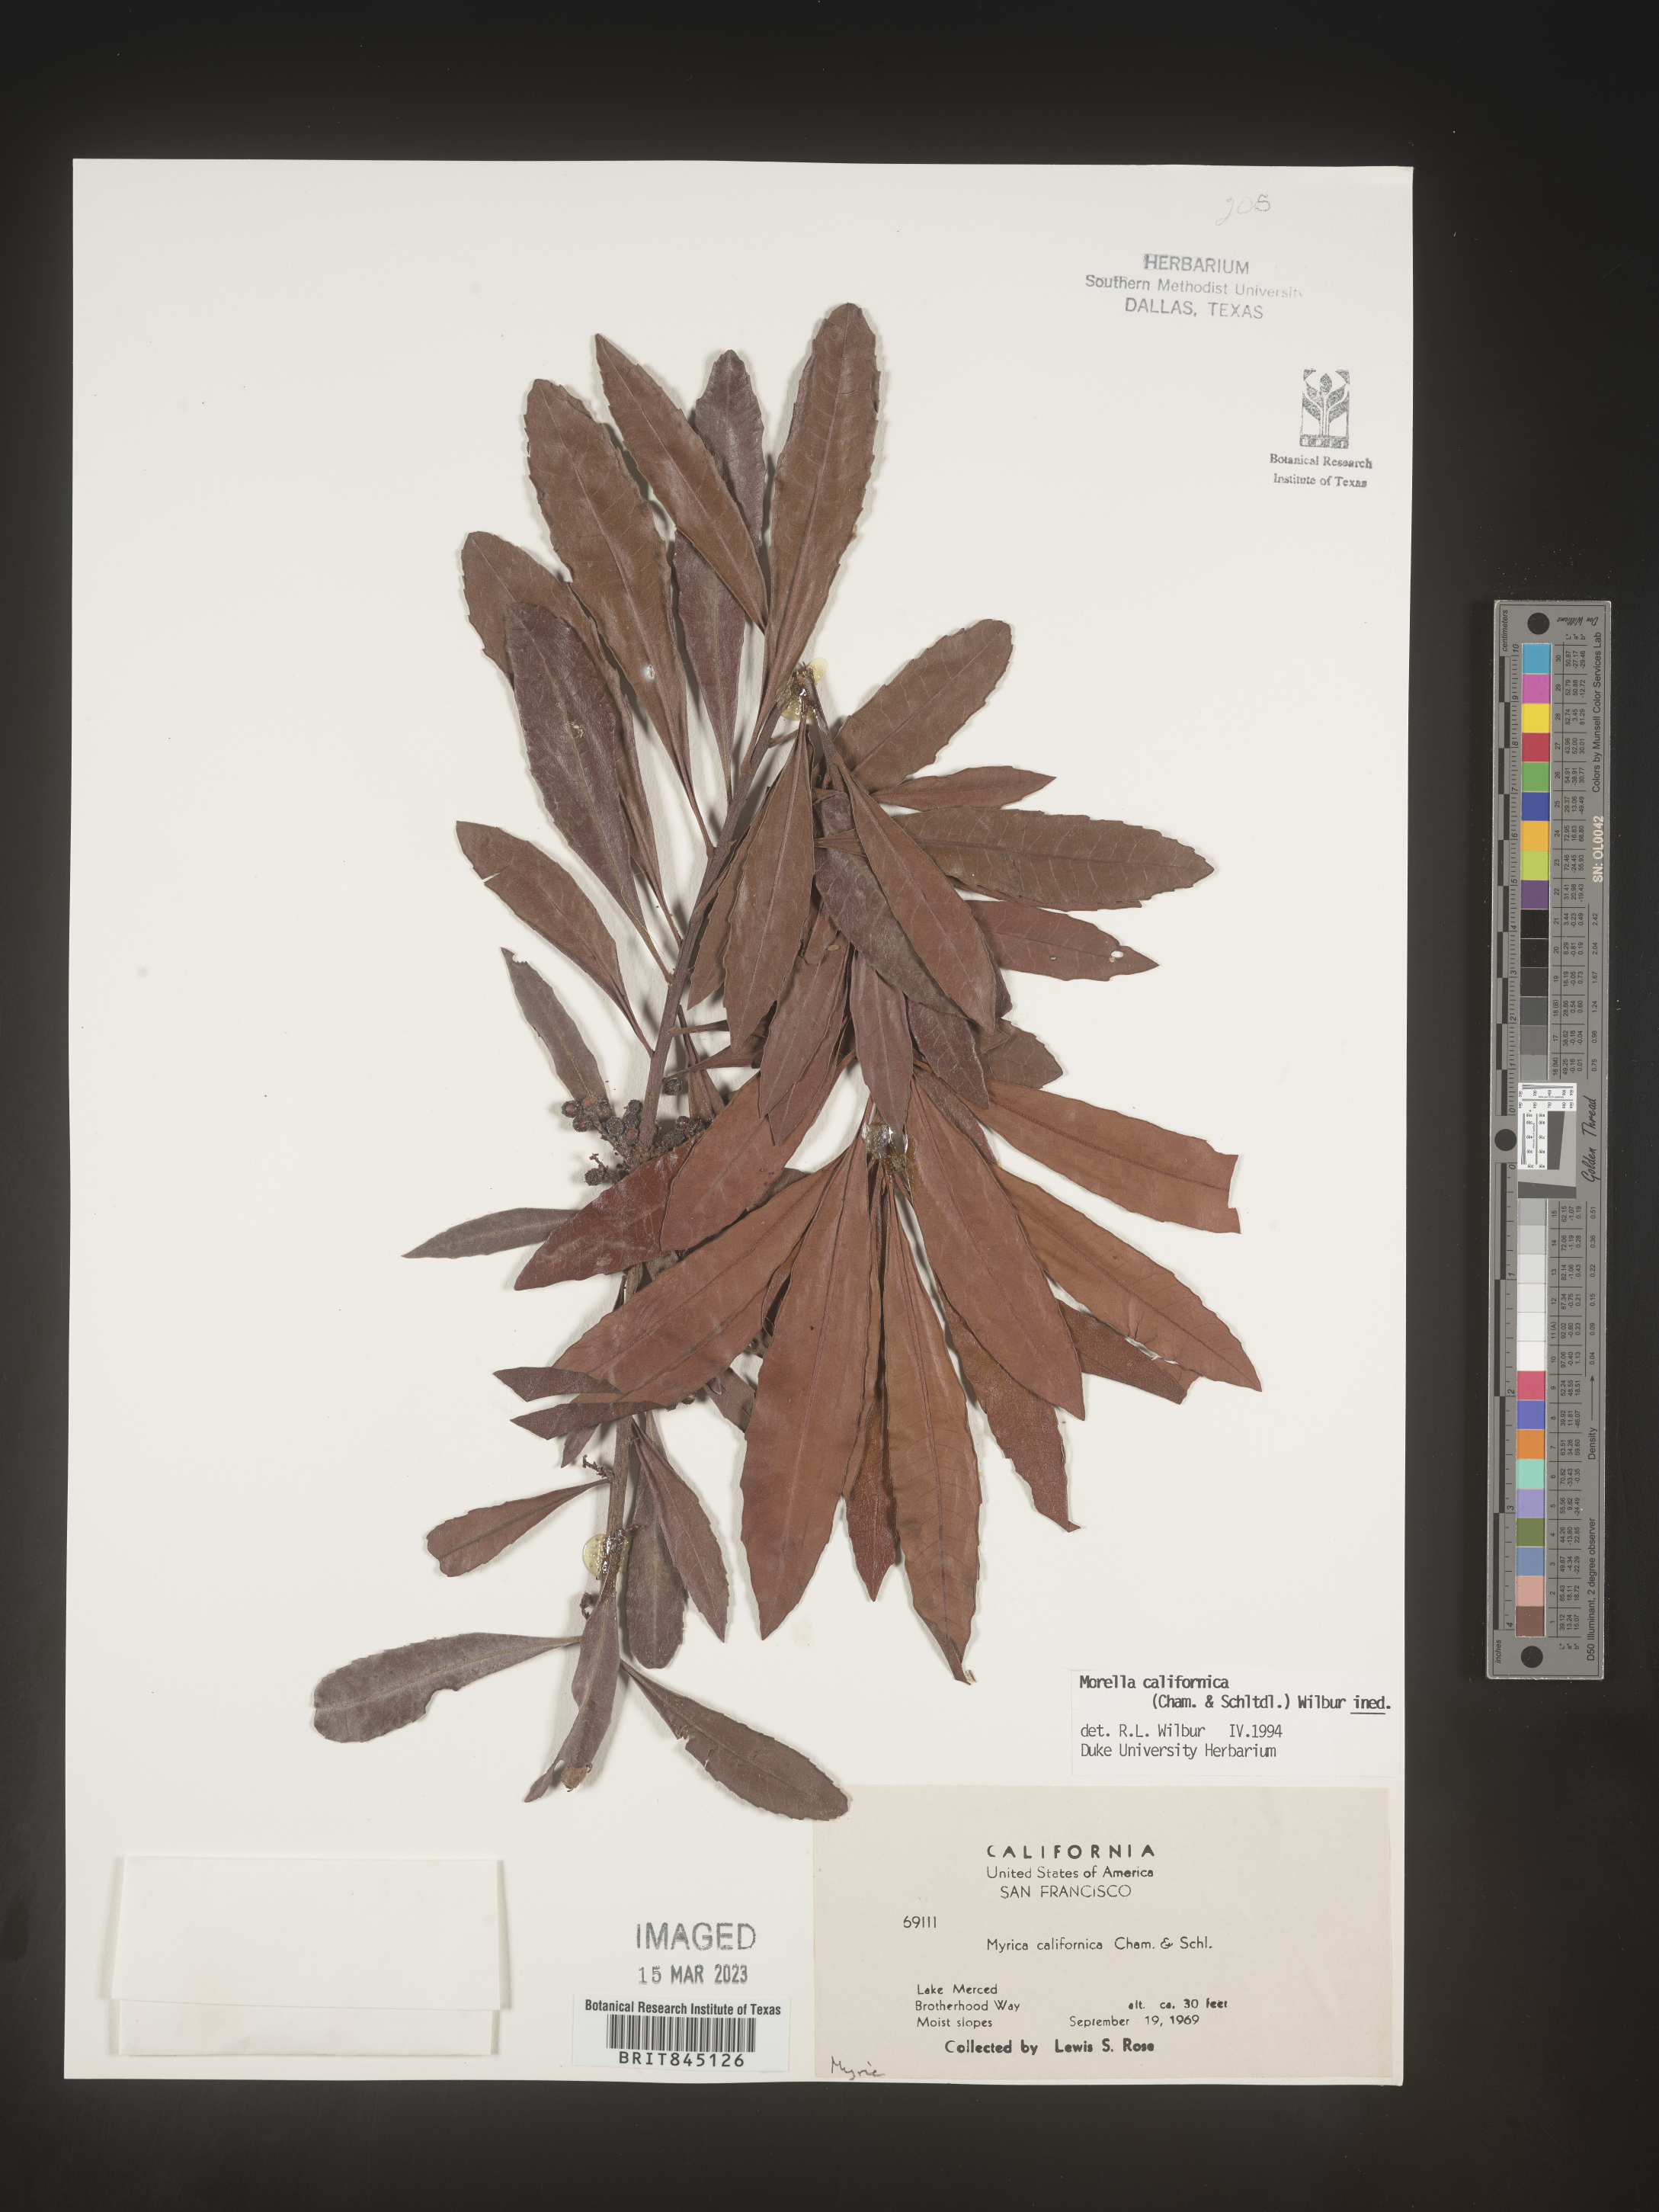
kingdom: Plantae
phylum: Tracheophyta
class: Magnoliopsida
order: Fagales
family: Myricaceae
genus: Morella
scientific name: Morella californica
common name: California wax-myrtle
